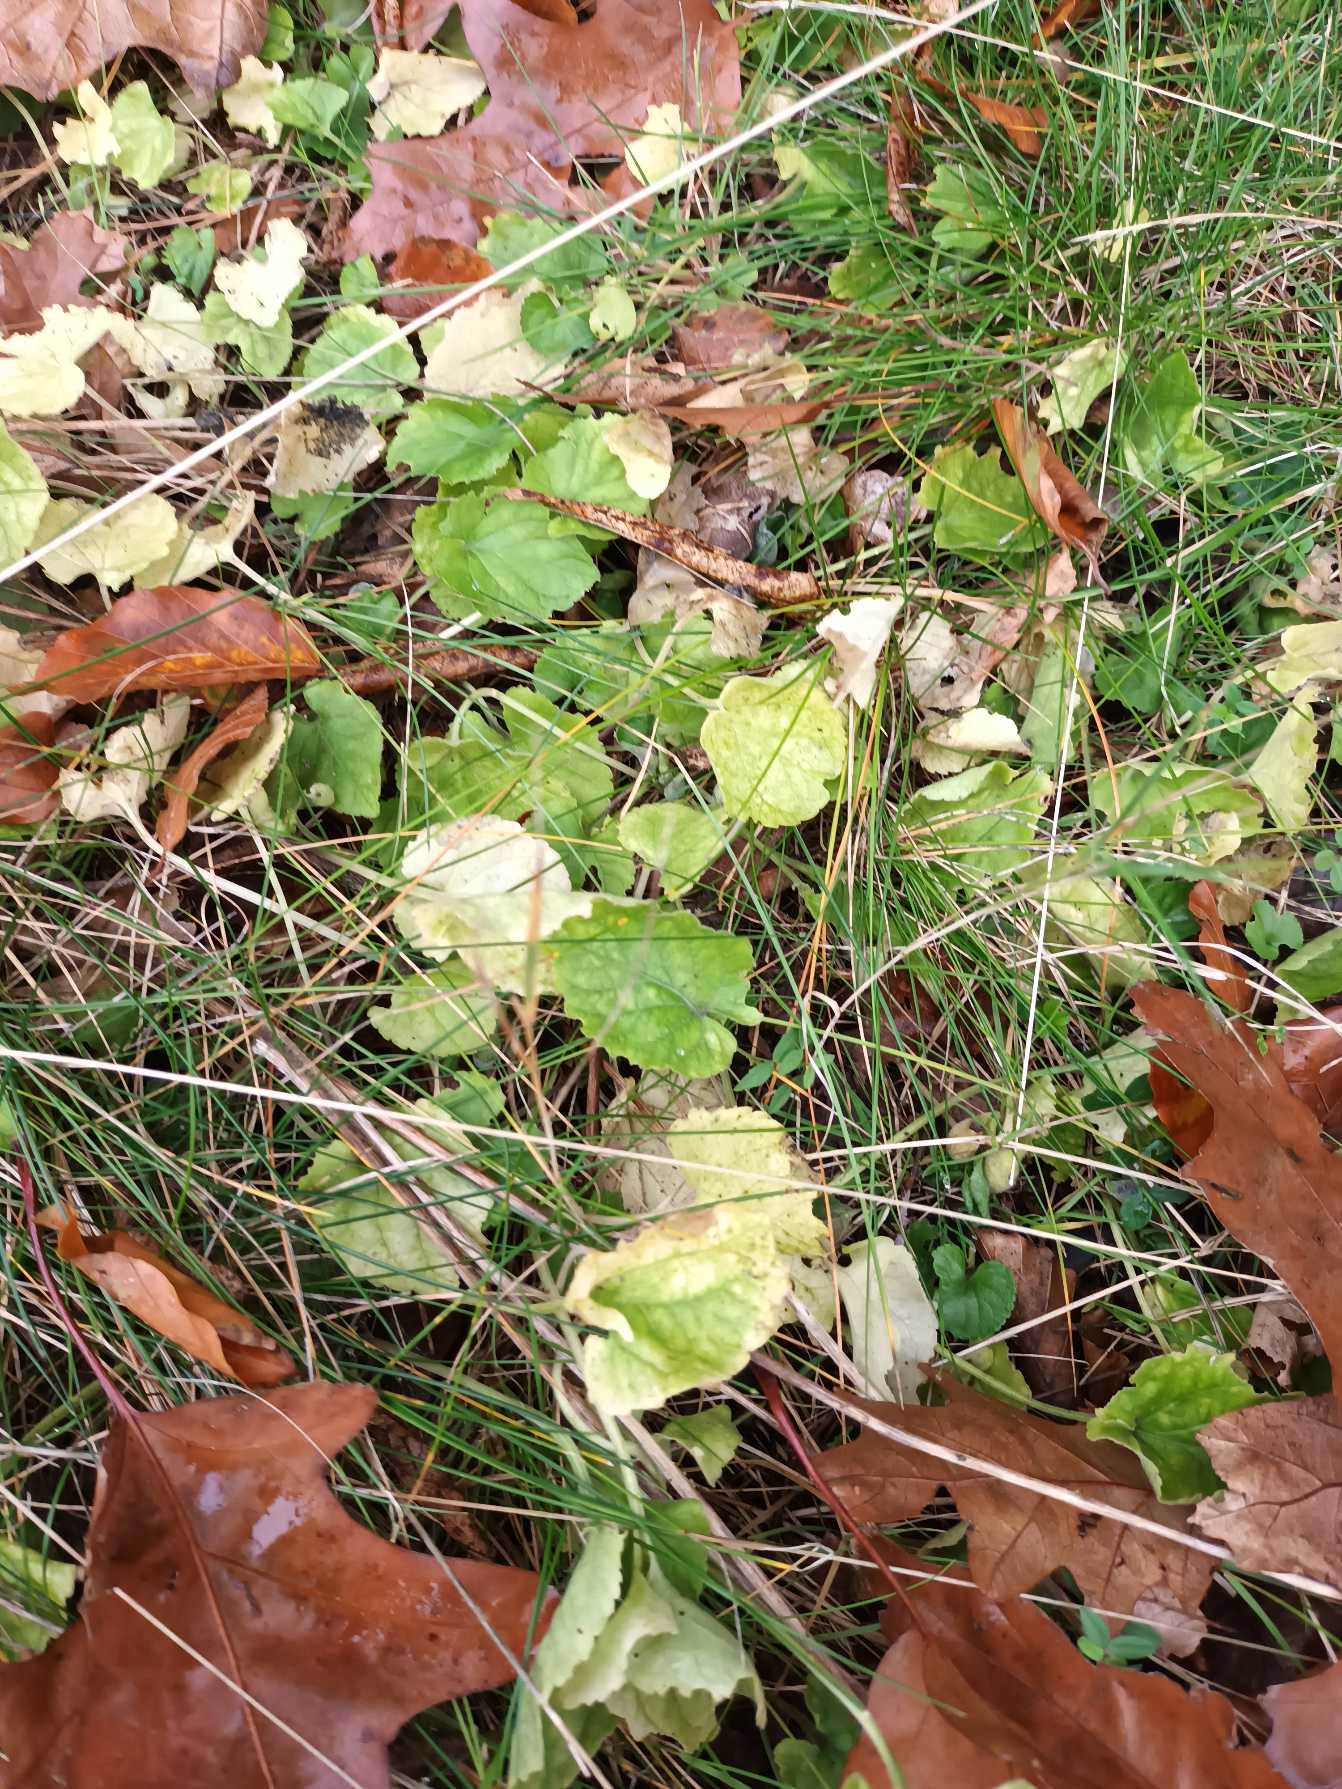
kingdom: Plantae
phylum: Tracheophyta
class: Magnoliopsida
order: Malpighiales
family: Violaceae
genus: Viola
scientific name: Viola odorata
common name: Marts-viol
